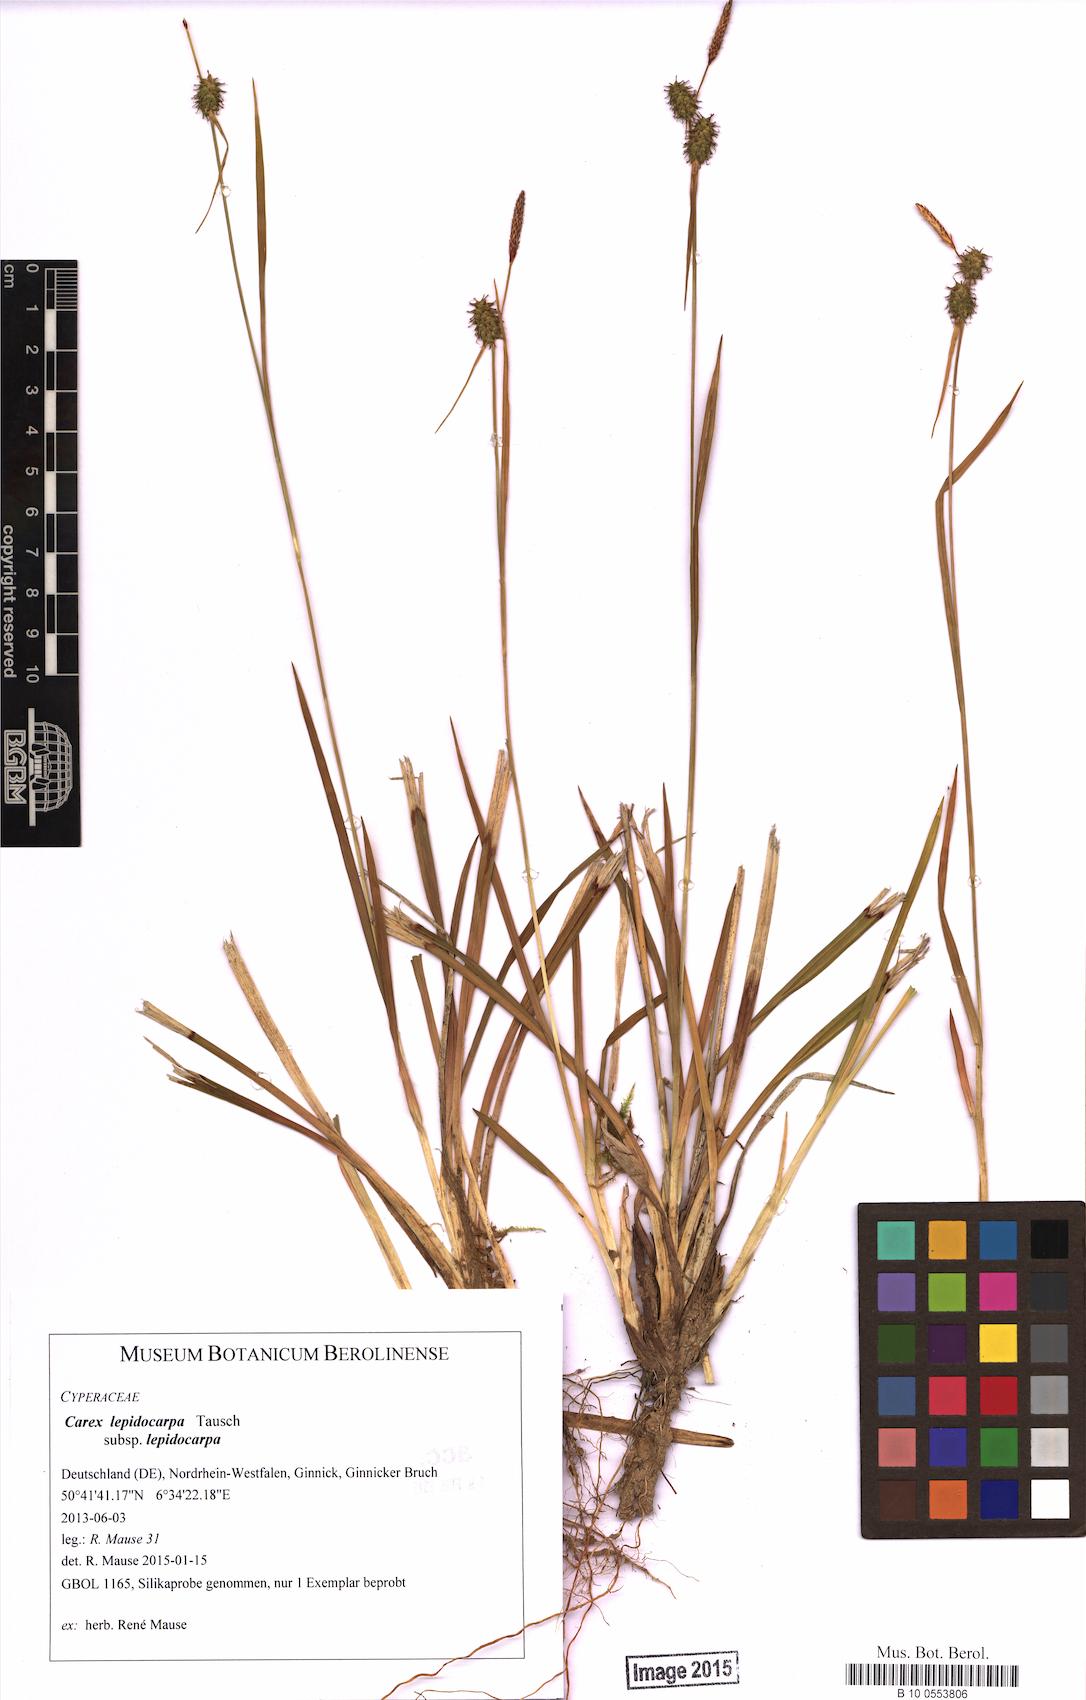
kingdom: Plantae
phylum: Tracheophyta
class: Liliopsida
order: Poales
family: Cyperaceae
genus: Carex
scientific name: Carex lepidocarpa
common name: Long-stalked yellow-sedge
